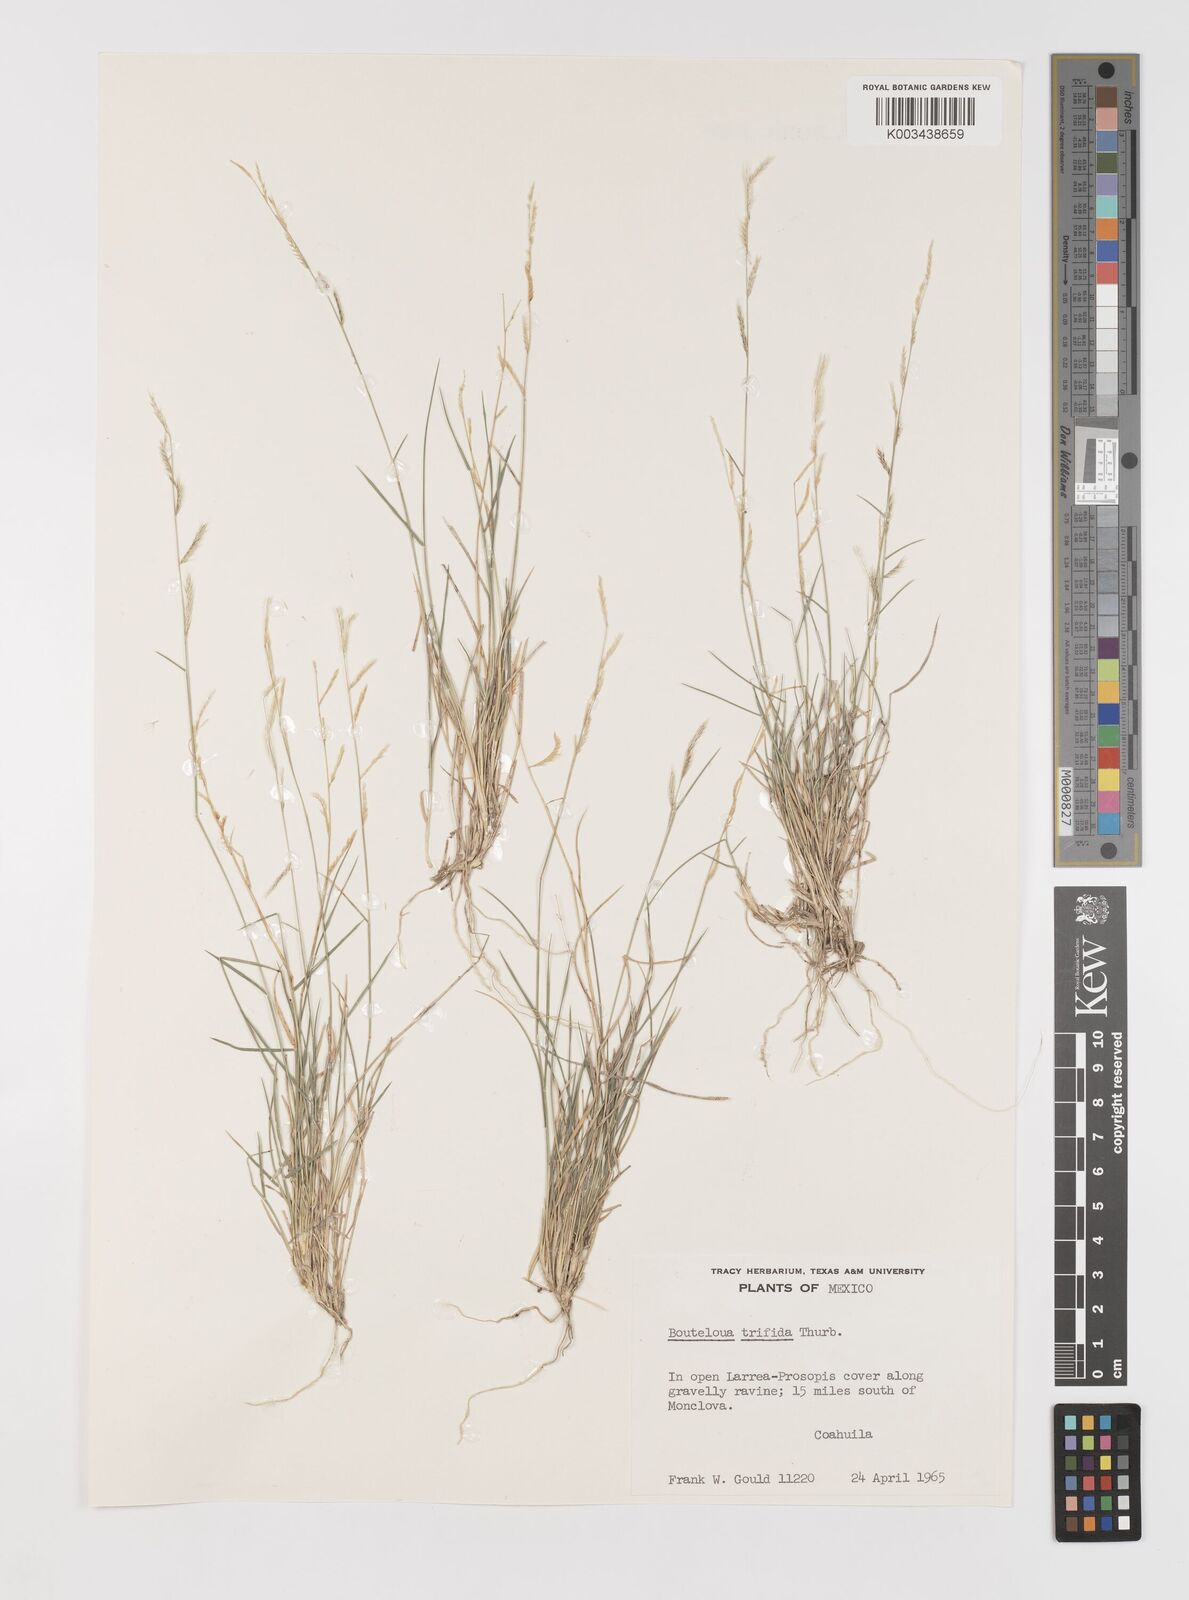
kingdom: Plantae
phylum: Tracheophyta
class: Liliopsida
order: Poales
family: Poaceae
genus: Bouteloua
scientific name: Bouteloua
